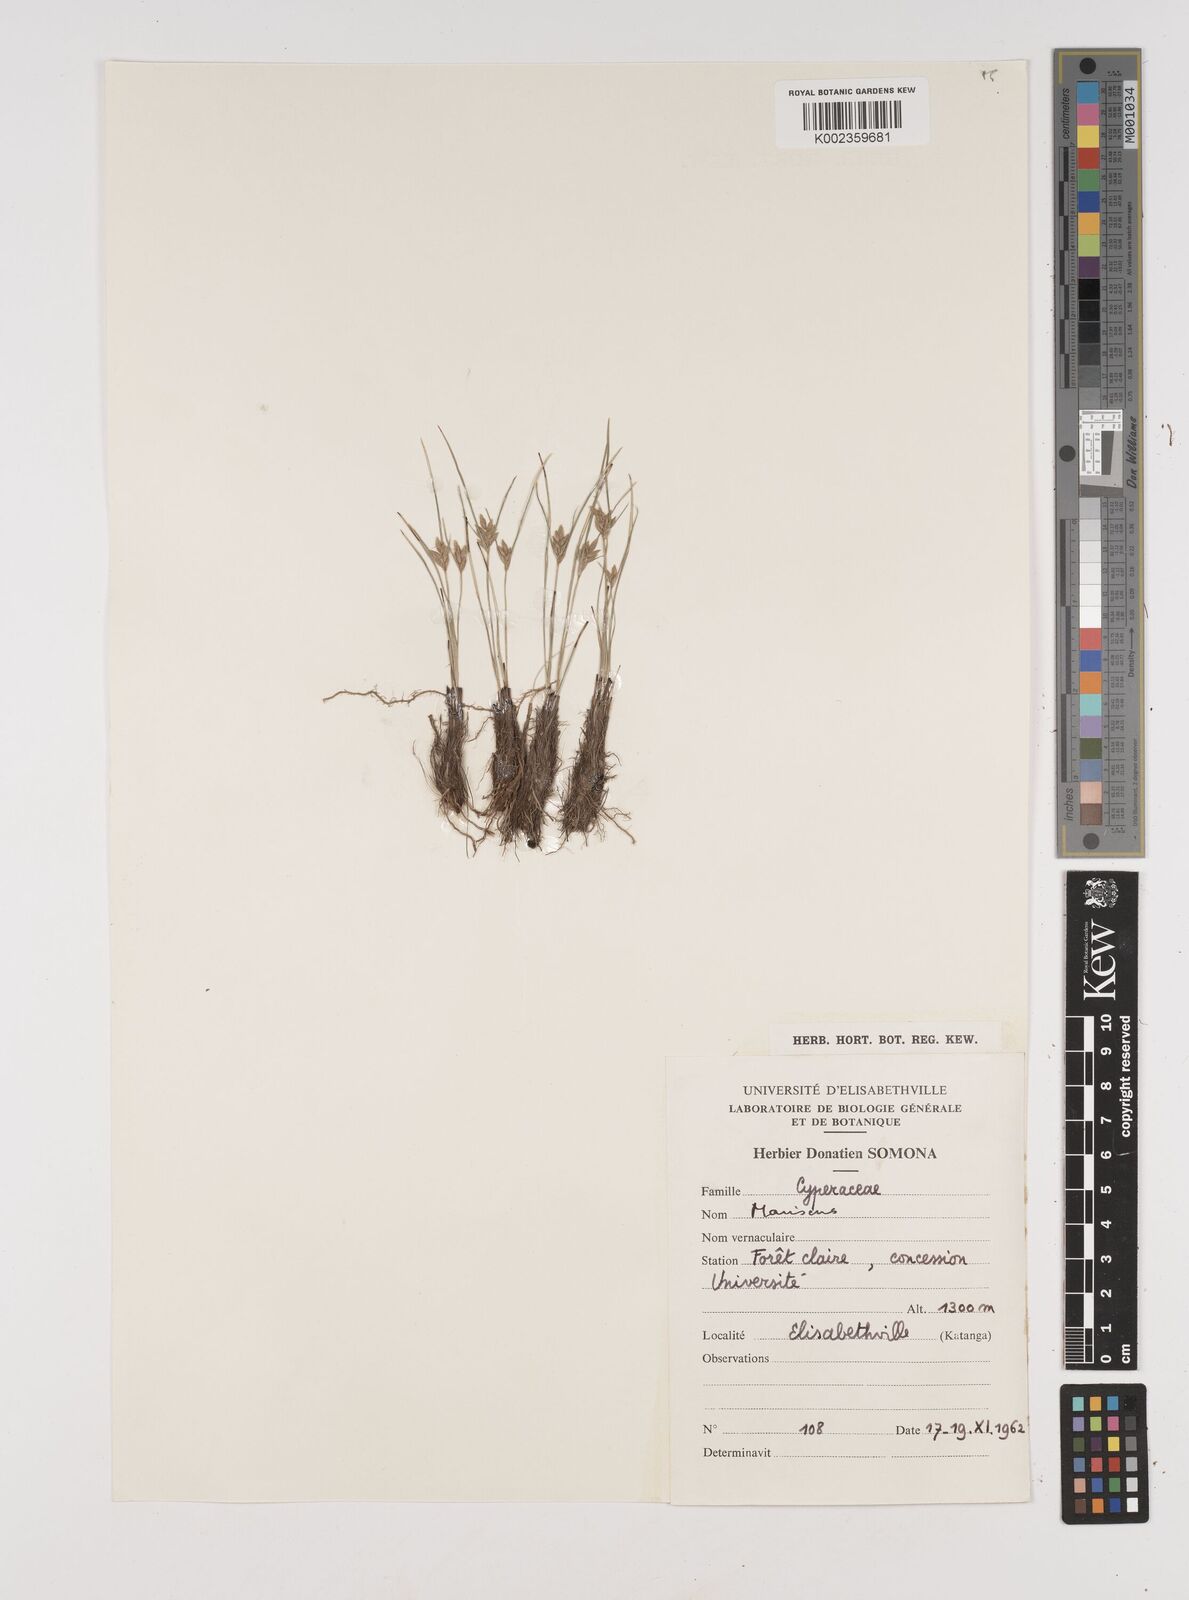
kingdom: Plantae
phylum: Tracheophyta
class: Liliopsida
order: Poales
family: Cyperaceae
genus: Cyperus
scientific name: Cyperus
